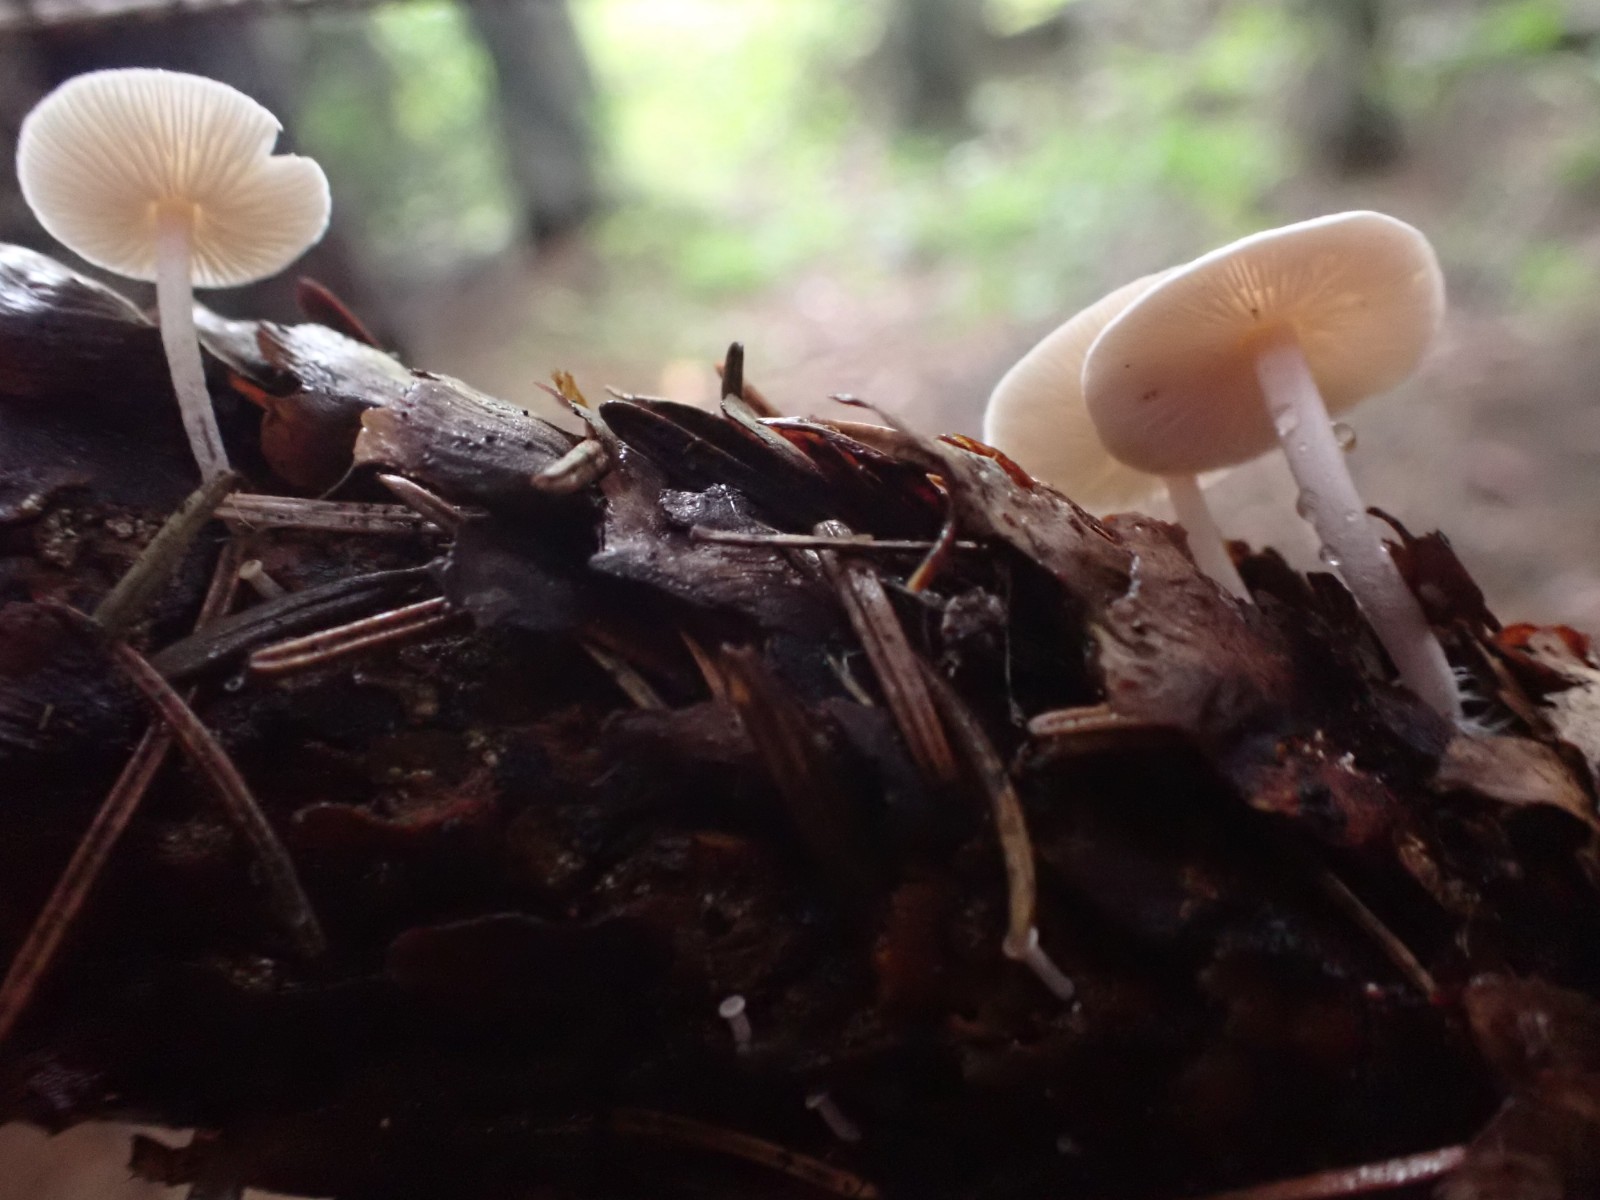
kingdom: Fungi
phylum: Basidiomycota
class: Agaricomycetes
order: Agaricales
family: Physalacriaceae
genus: Strobilurus
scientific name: Strobilurus esculentus
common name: gran-koglehat
